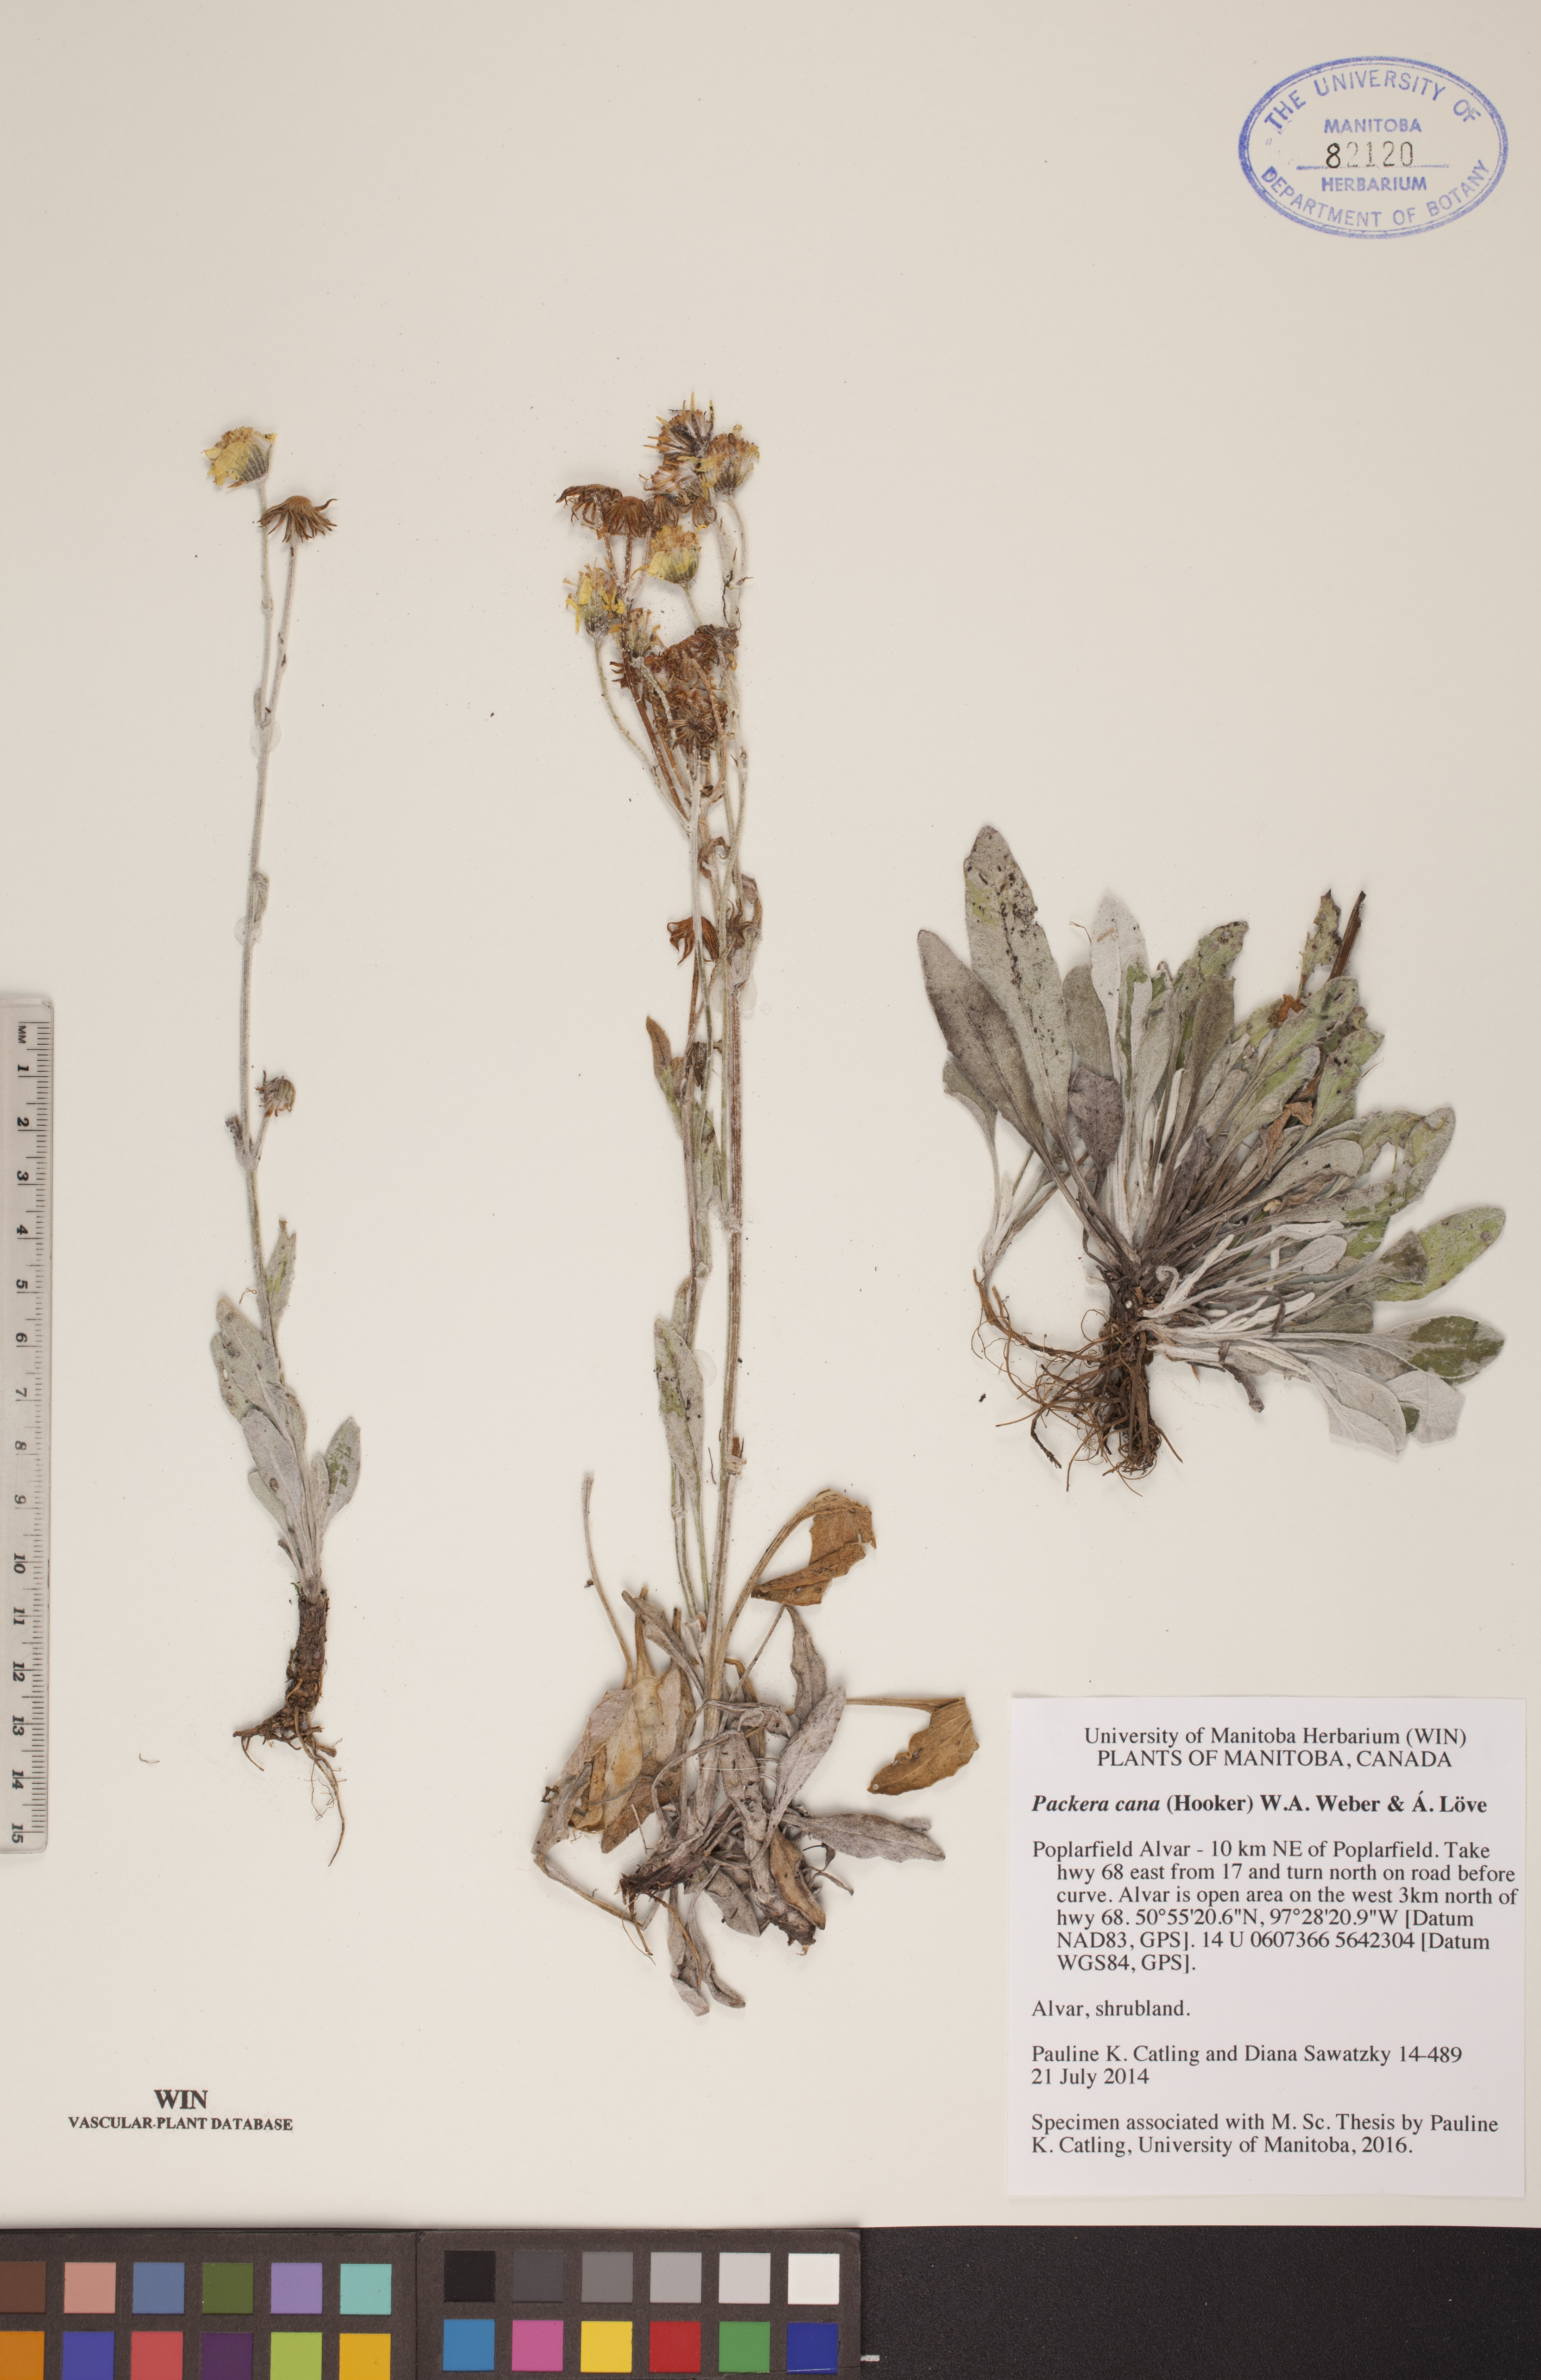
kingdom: Plantae
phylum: Tracheophyta
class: Magnoliopsida
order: Asterales
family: Asteraceae
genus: Packera
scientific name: Packera cana
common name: Woolly groundsel
